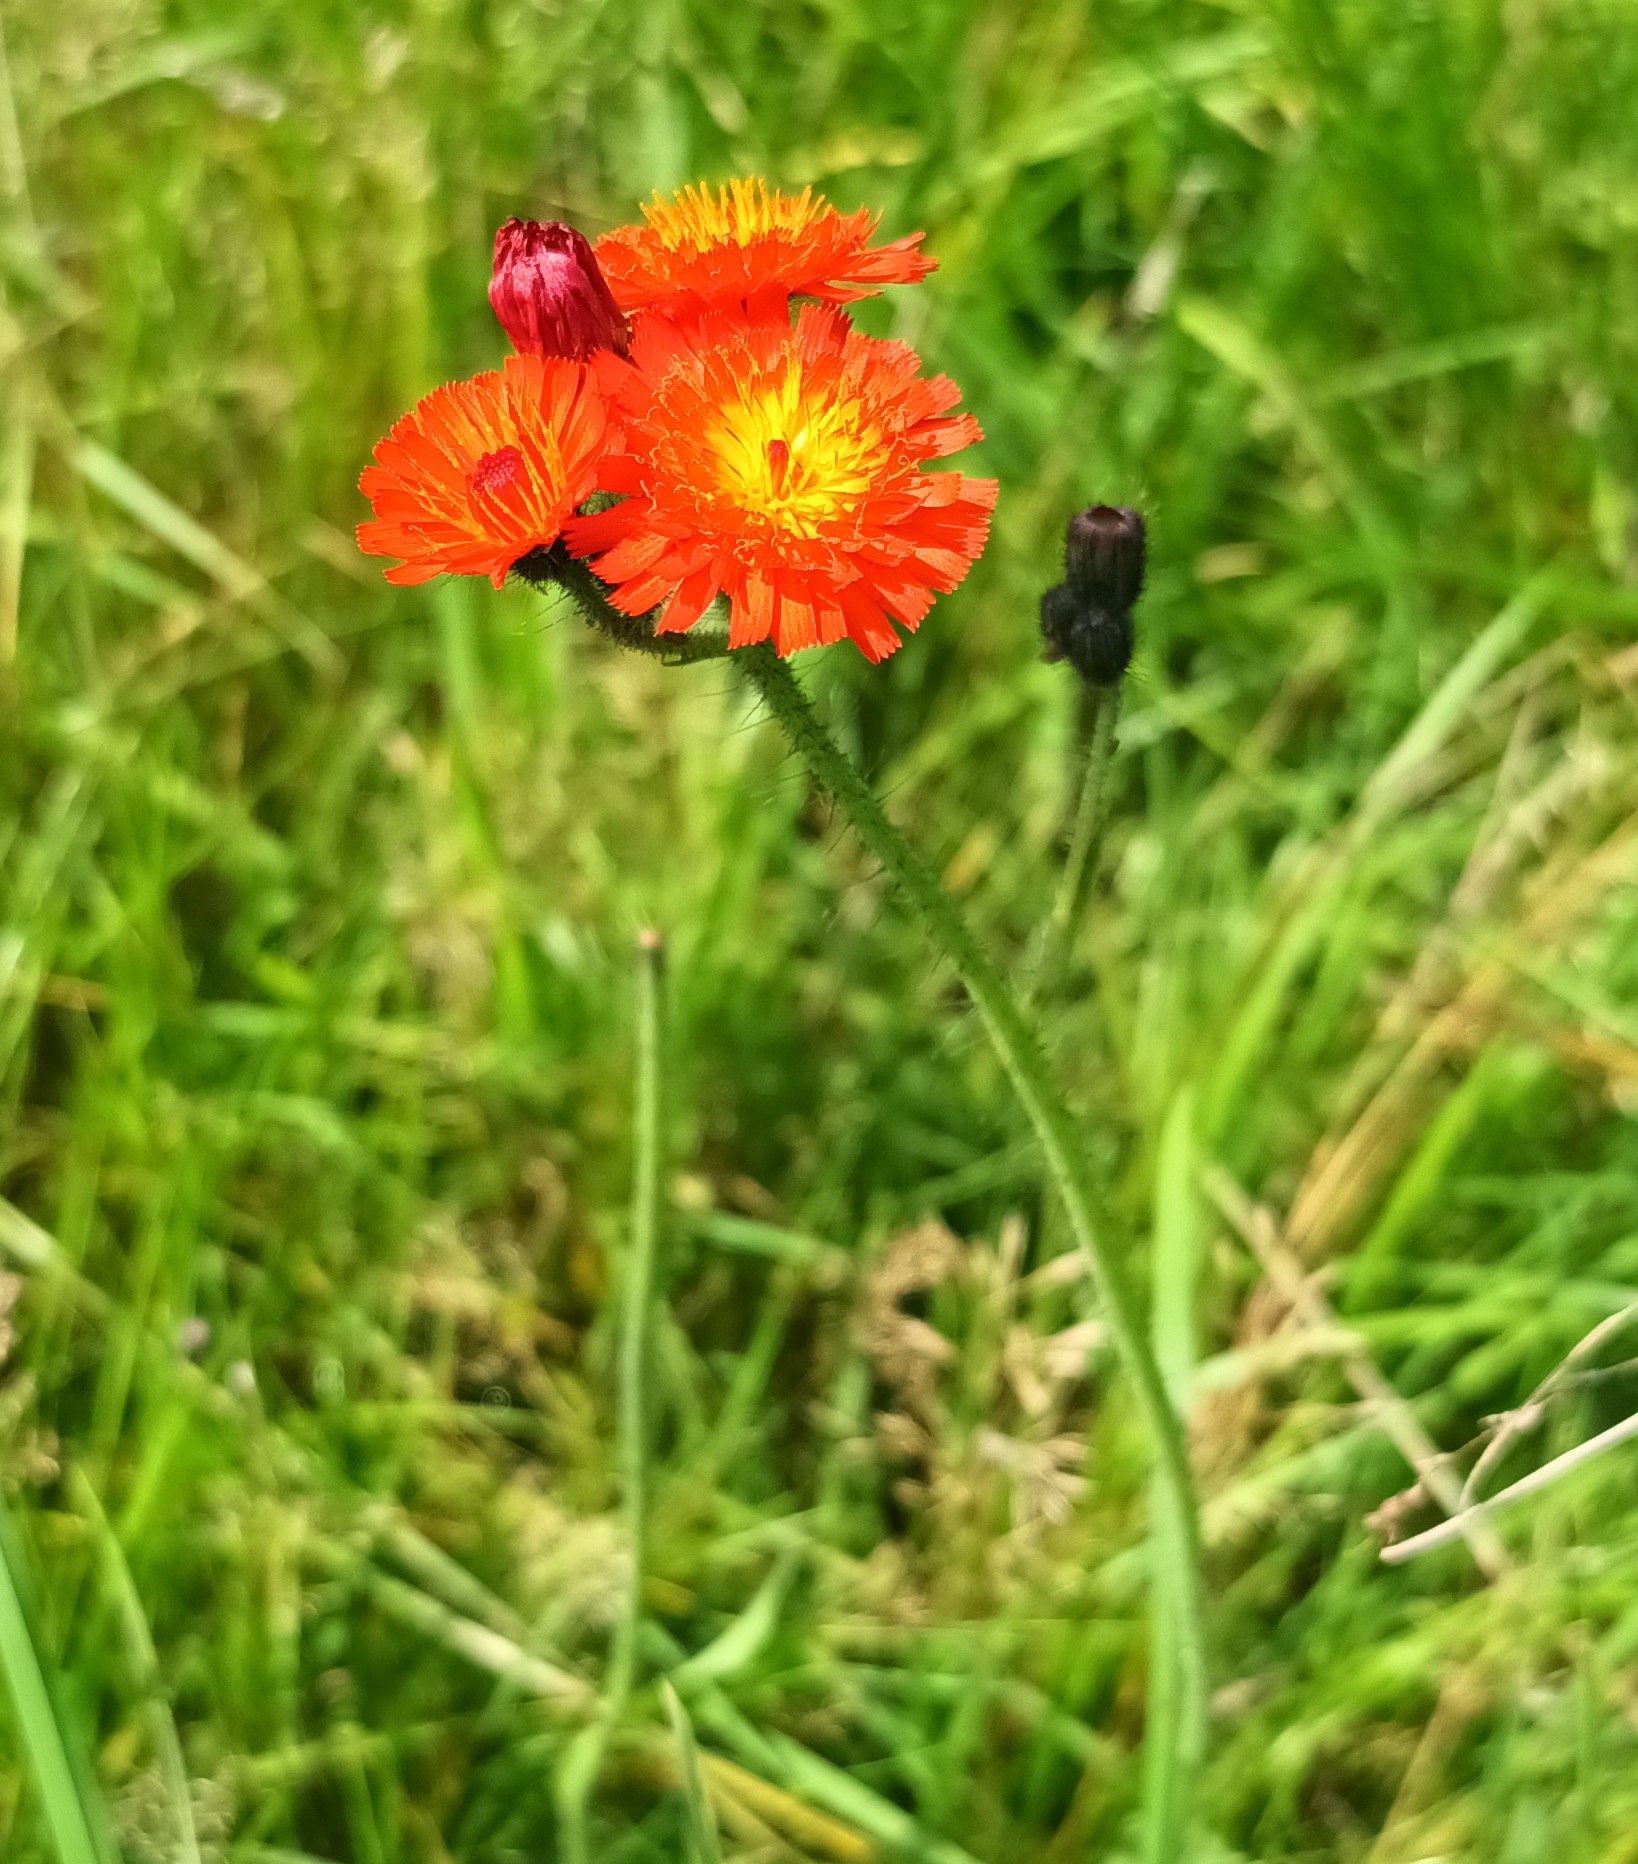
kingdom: Plantae
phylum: Tracheophyta
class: Magnoliopsida
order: Asterales
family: Asteraceae
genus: Pilosella
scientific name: Pilosella aurantiaca
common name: Pomerans-høgeurt
